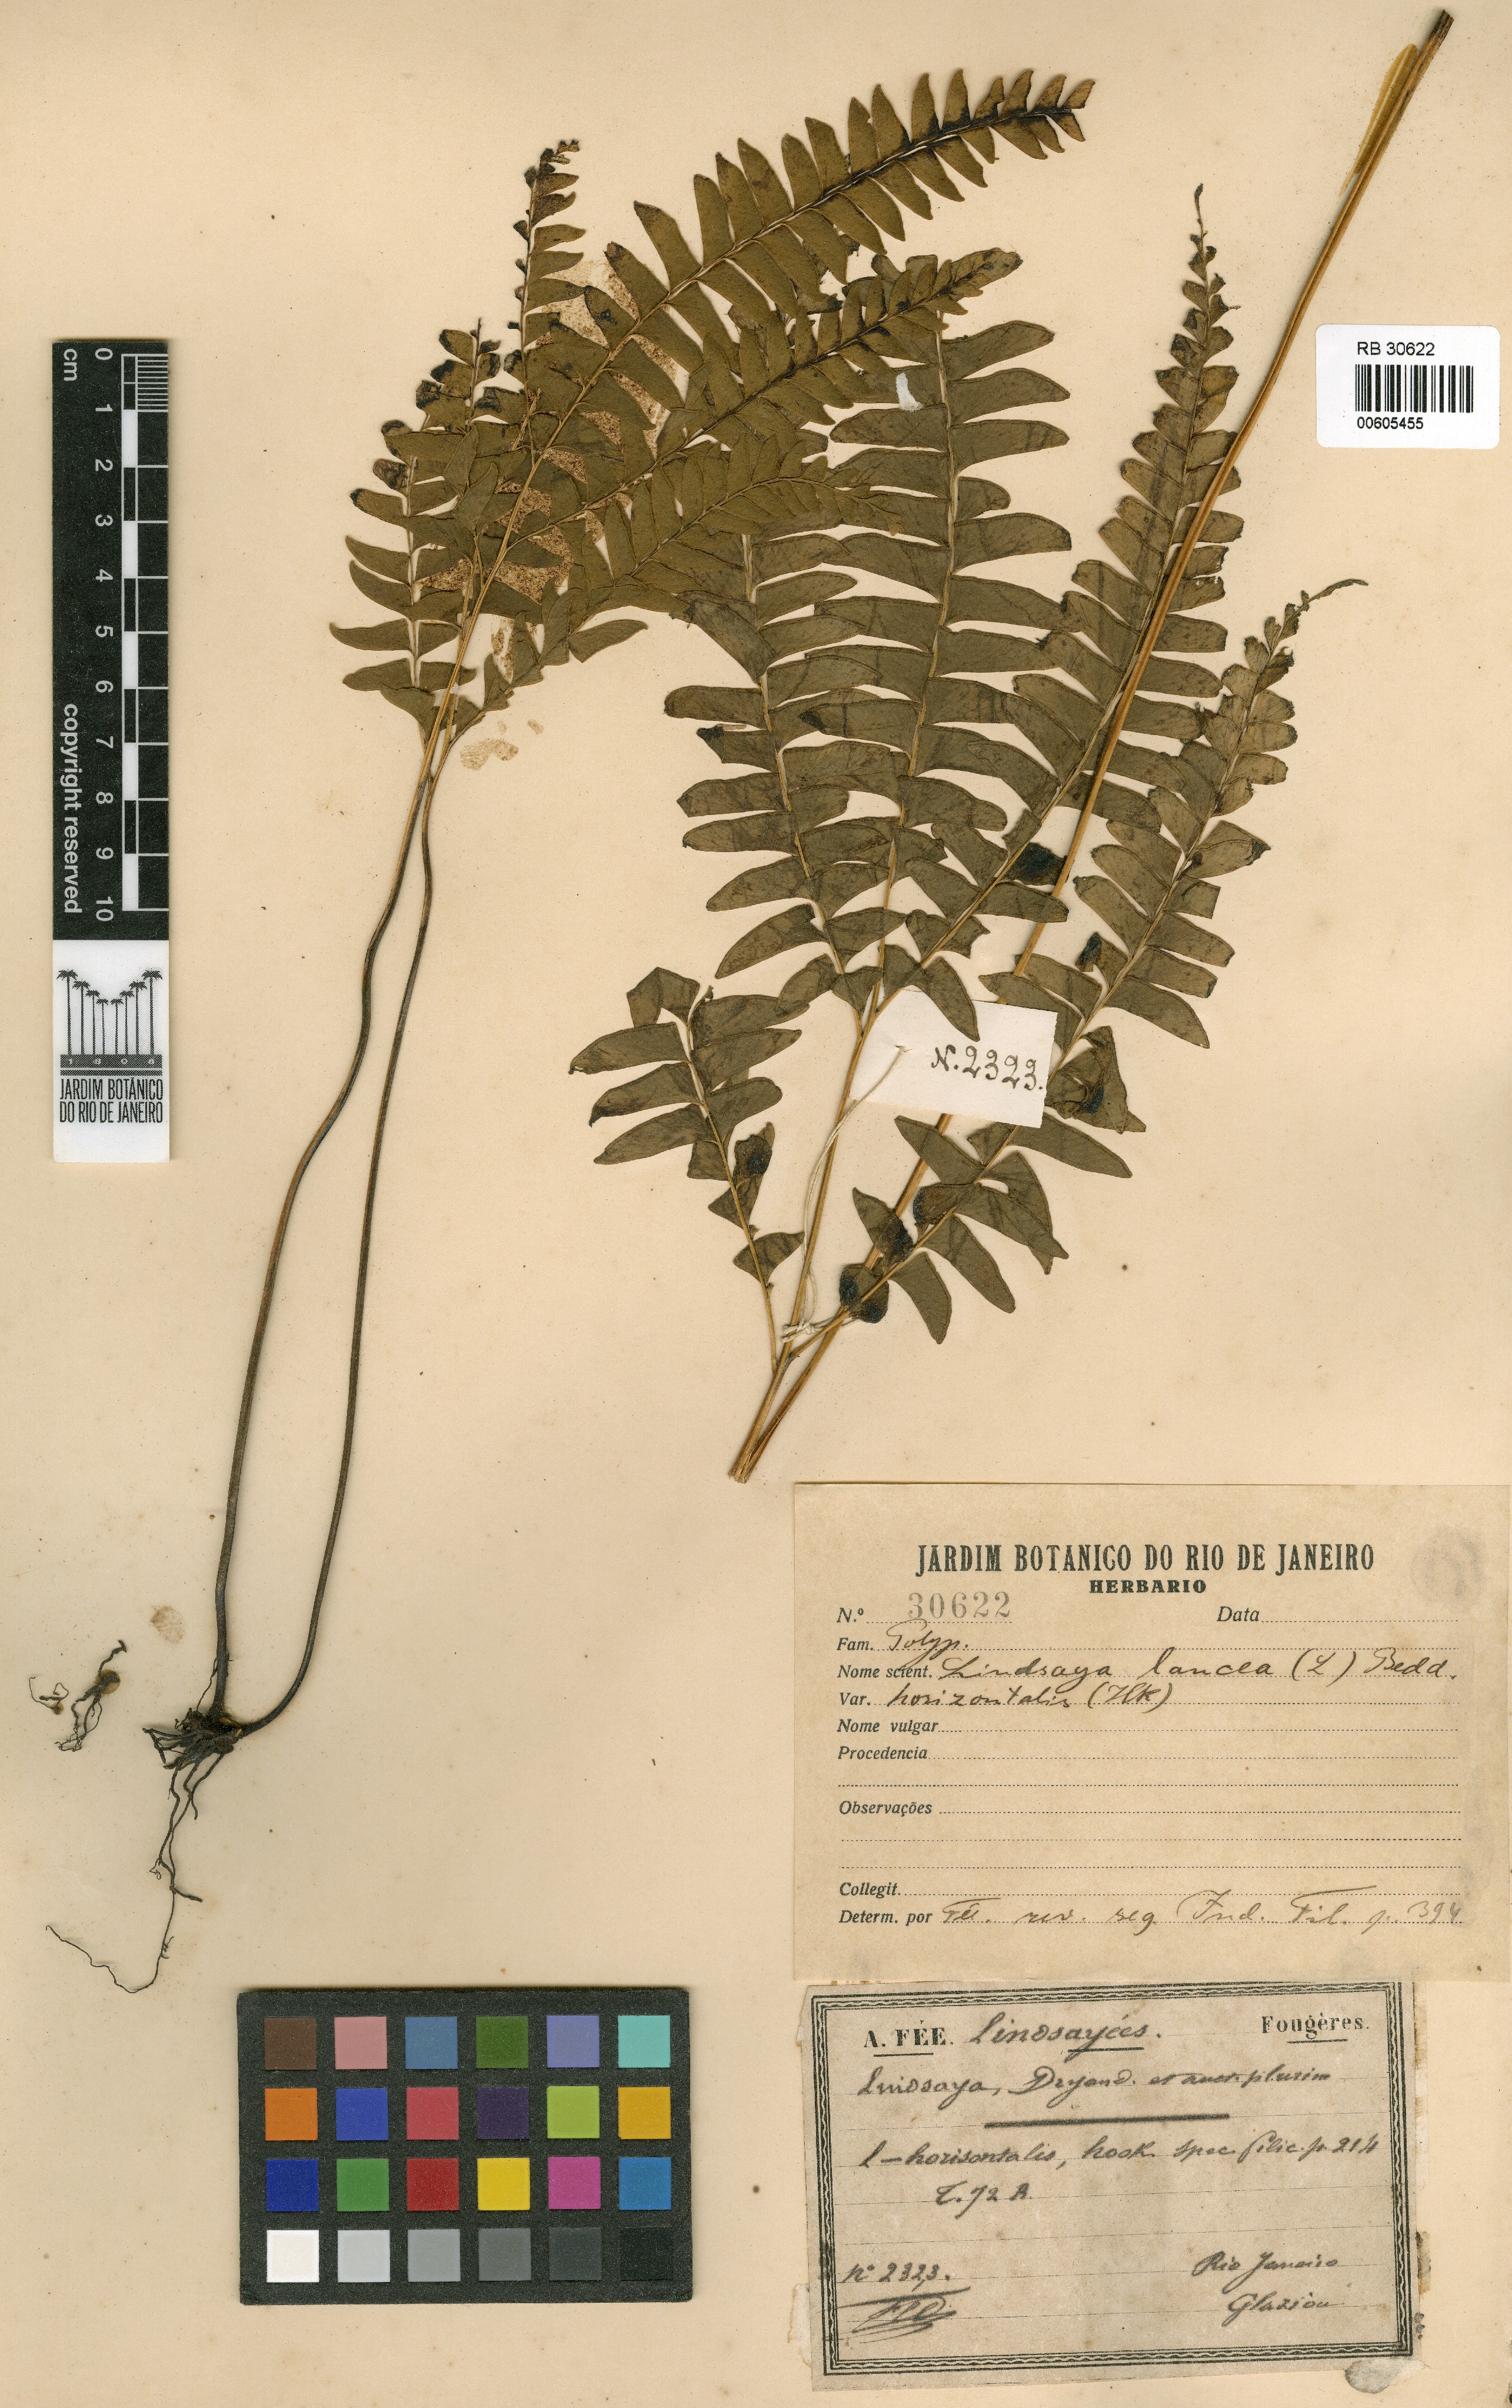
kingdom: Plantae
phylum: Tracheophyta
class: Polypodiopsida
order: Polypodiales
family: Lindsaeaceae
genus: Lindsaea
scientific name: Lindsaea lancea
